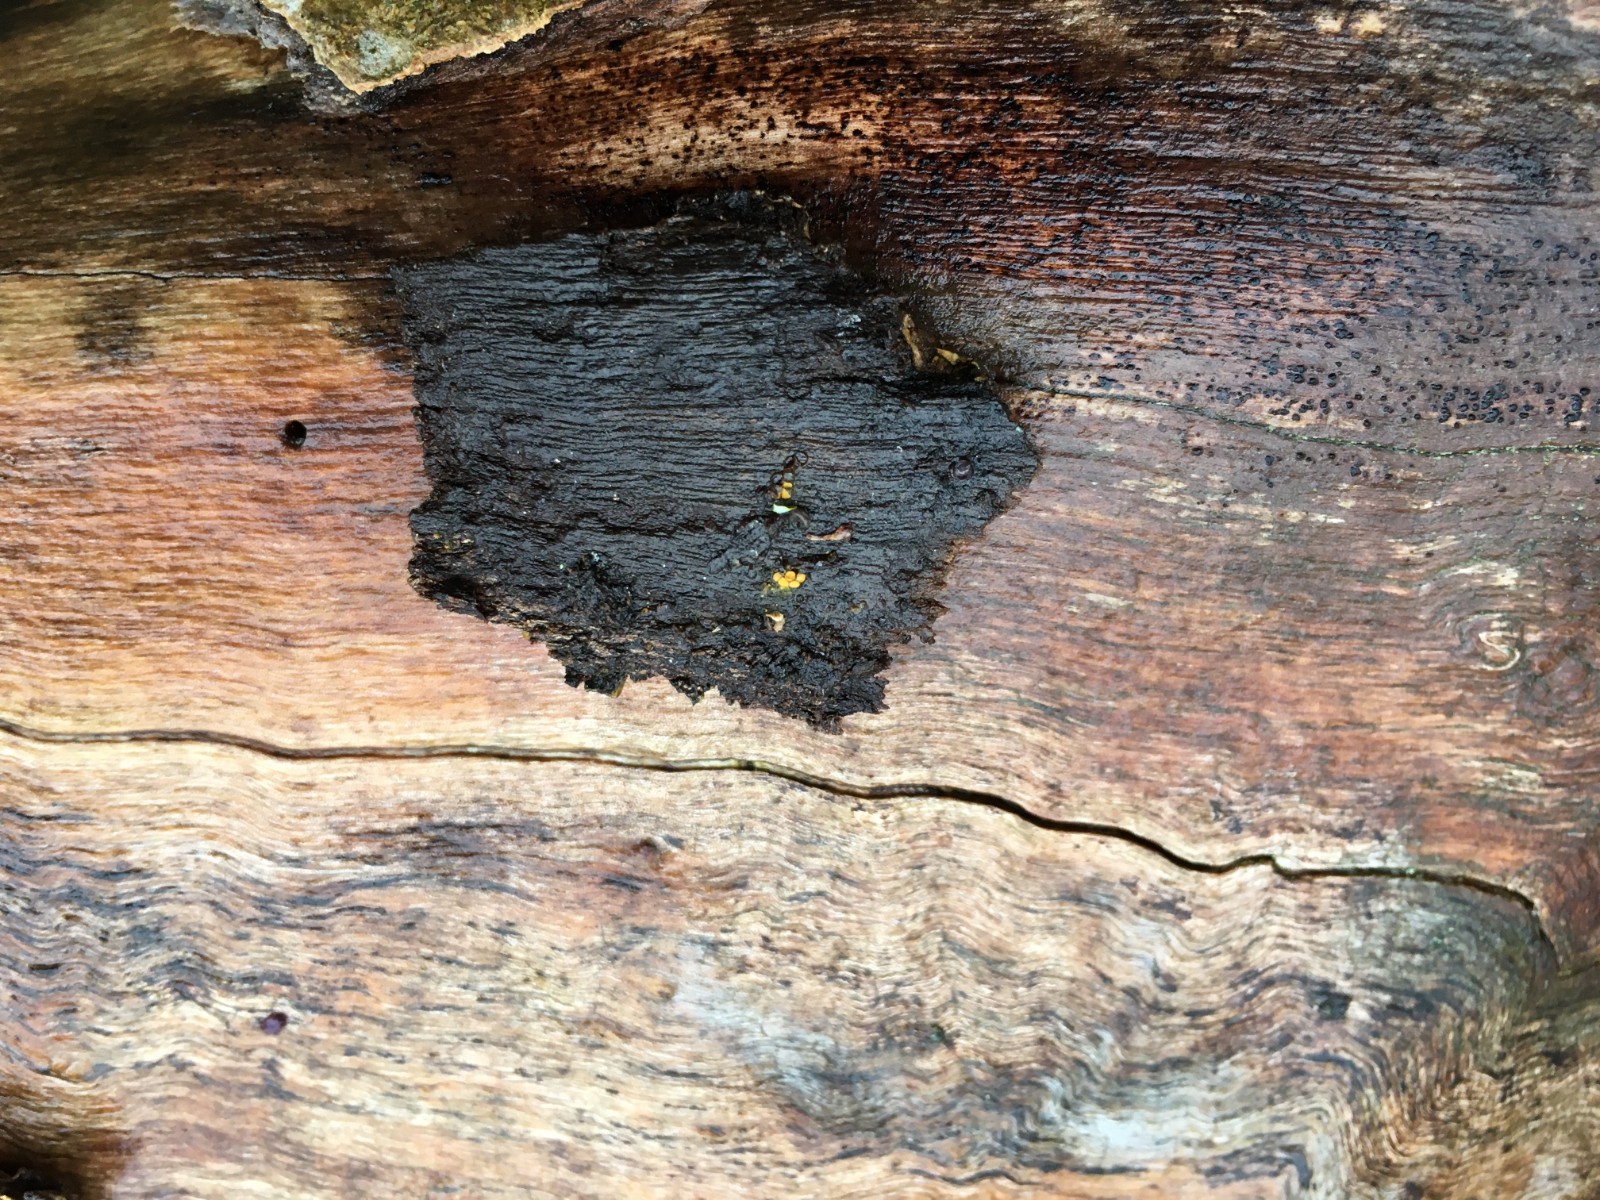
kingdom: Protozoa
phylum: Mycetozoa
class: Myxomycetes
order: Trichiales
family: Trichiaceae
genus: Perichaena
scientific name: Perichaena corticalis
